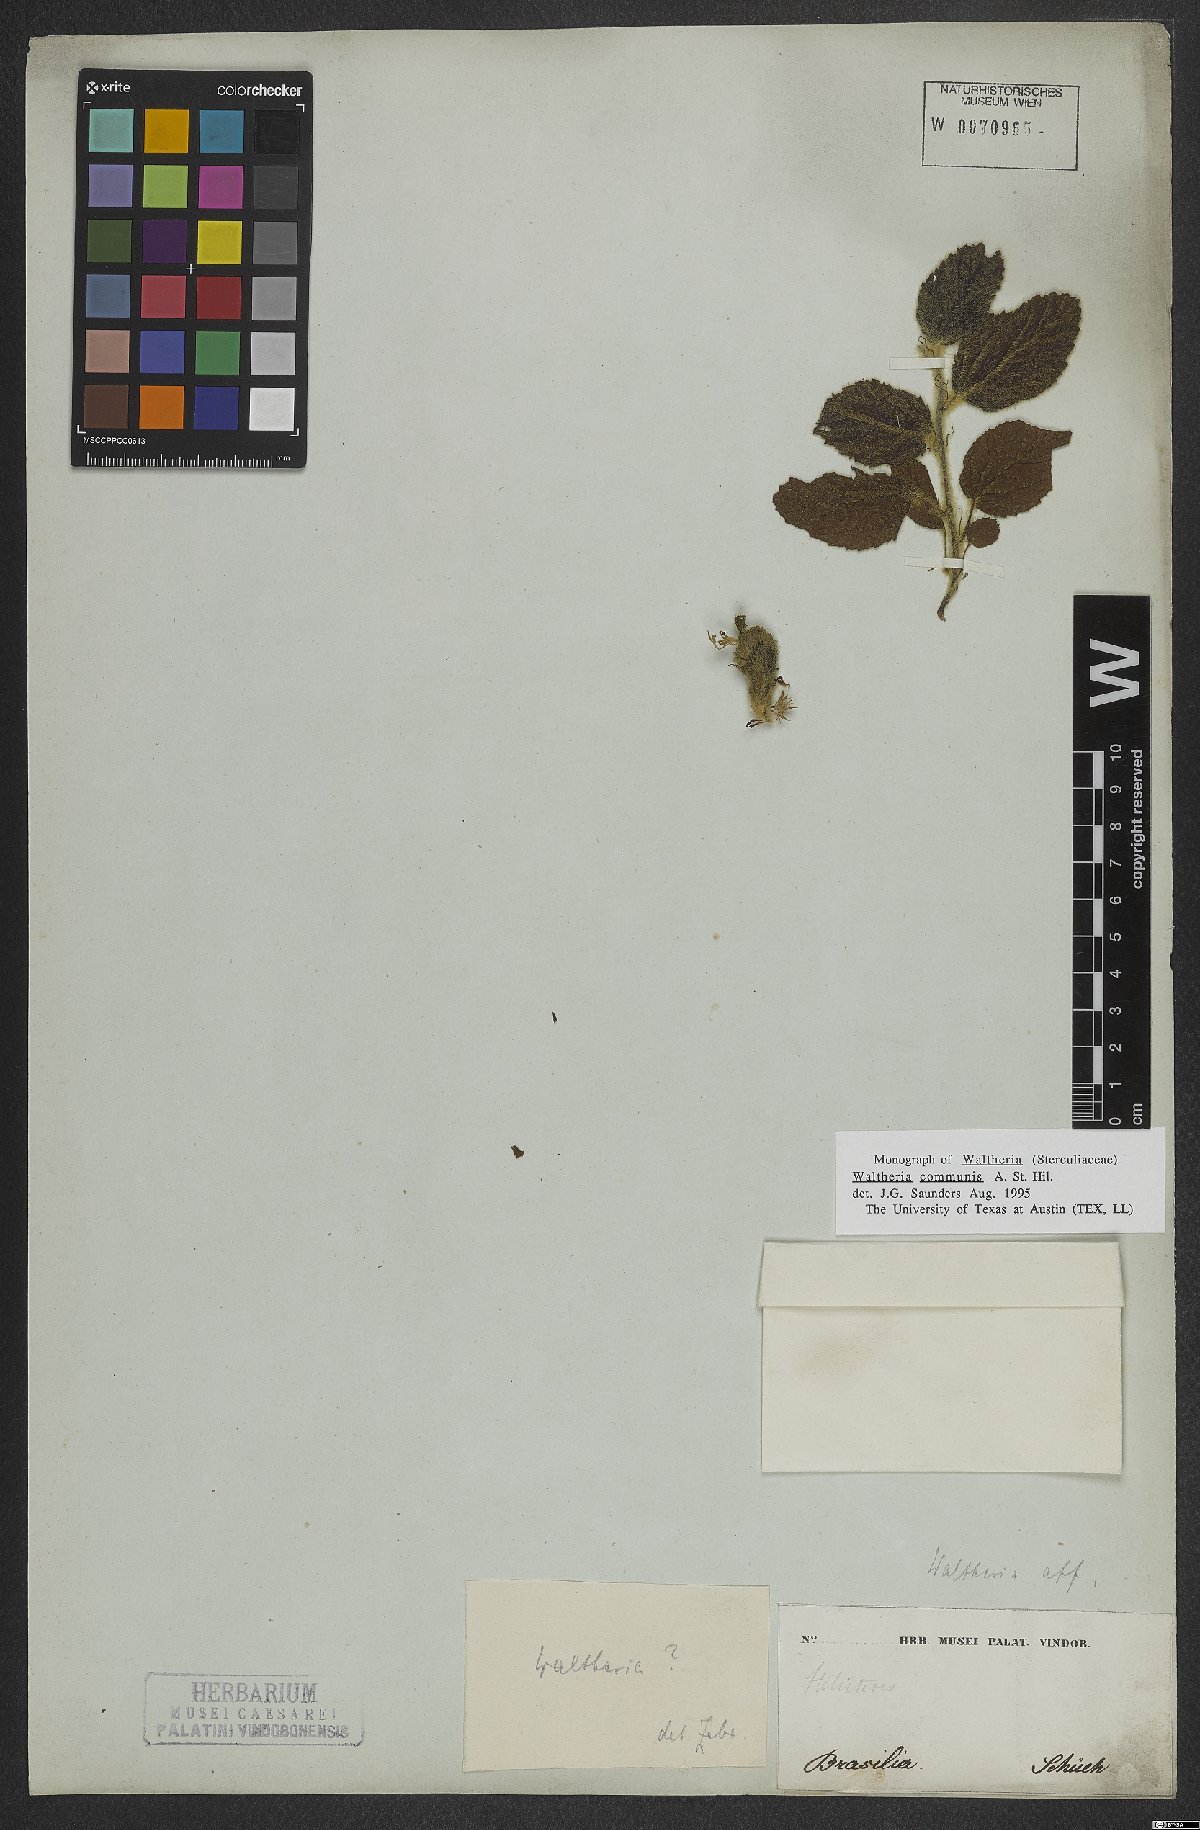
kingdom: Plantae
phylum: Tracheophyta
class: Magnoliopsida
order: Malvales
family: Malvaceae
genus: Waltheria
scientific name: Waltheria communis
